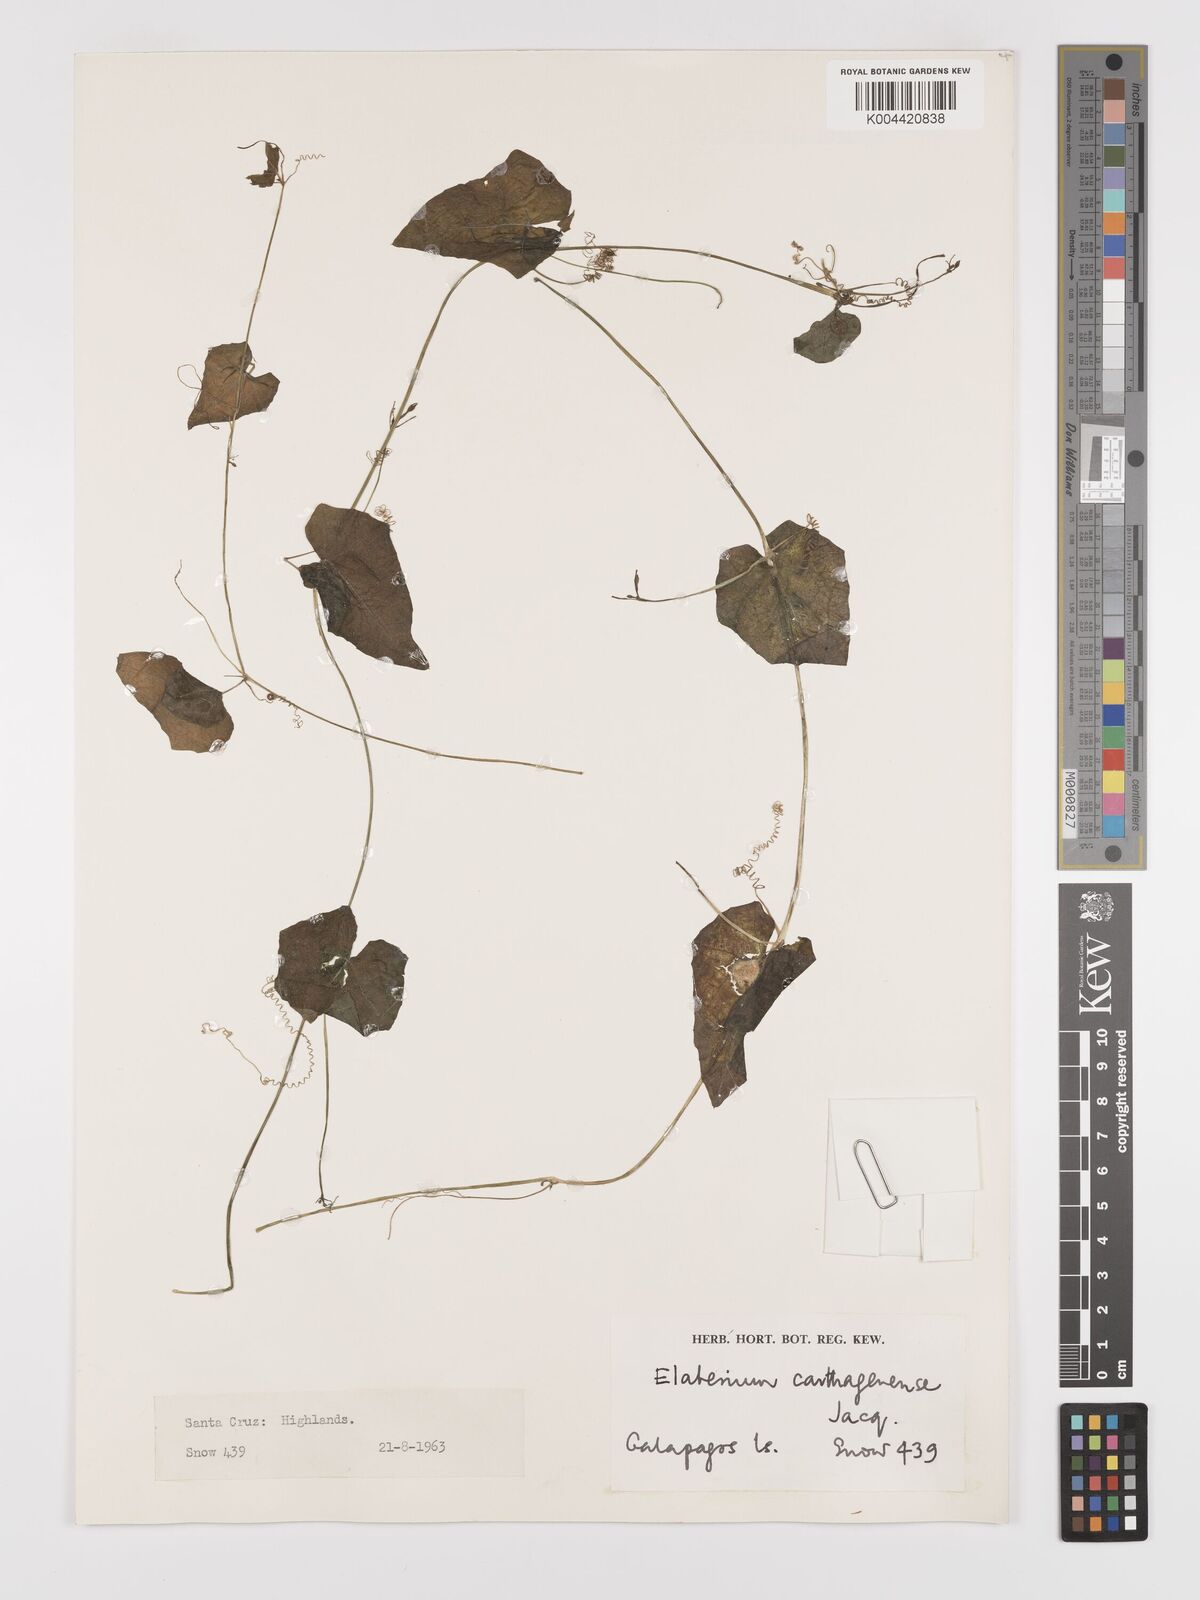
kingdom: Plantae
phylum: Tracheophyta
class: Magnoliopsida
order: Cucurbitales
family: Cucurbitaceae
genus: Cyclanthera
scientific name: Cyclanthera carthagenensis
